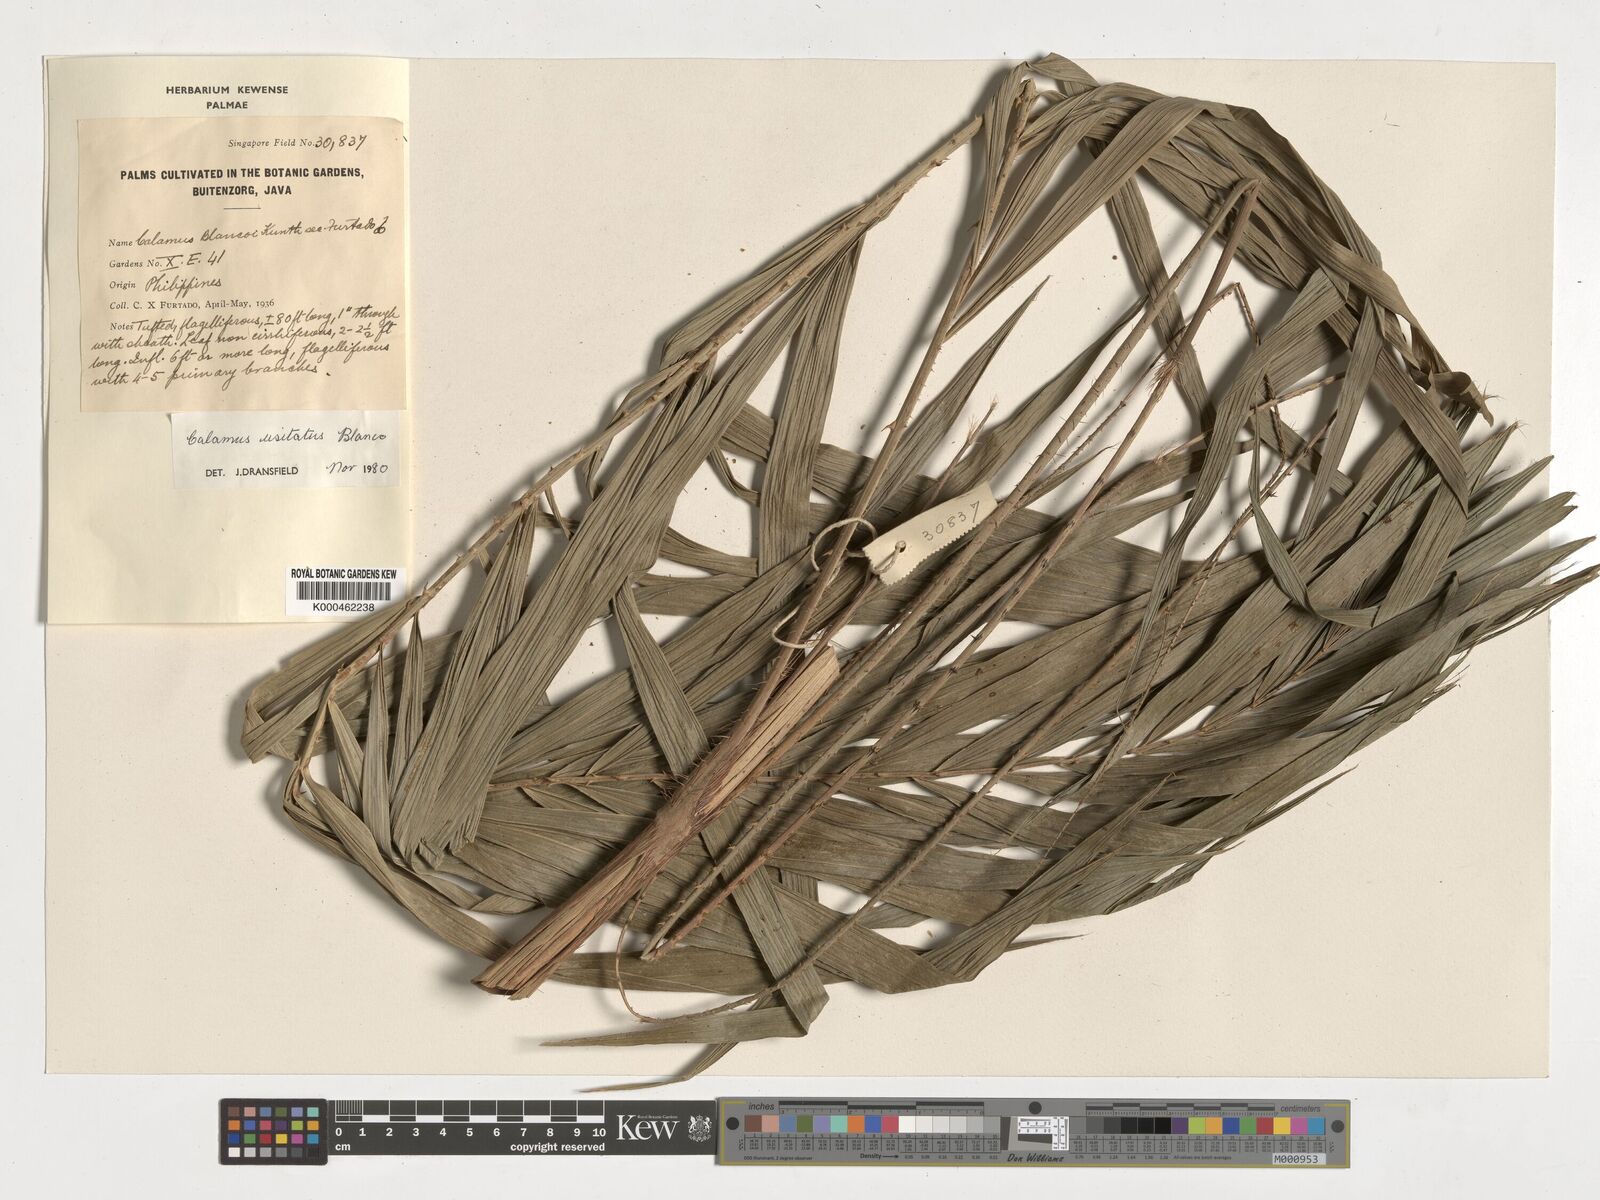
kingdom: Plantae
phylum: Tracheophyta
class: Liliopsida
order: Arecales
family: Arecaceae
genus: Calamus
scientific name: Calamus usitatus
